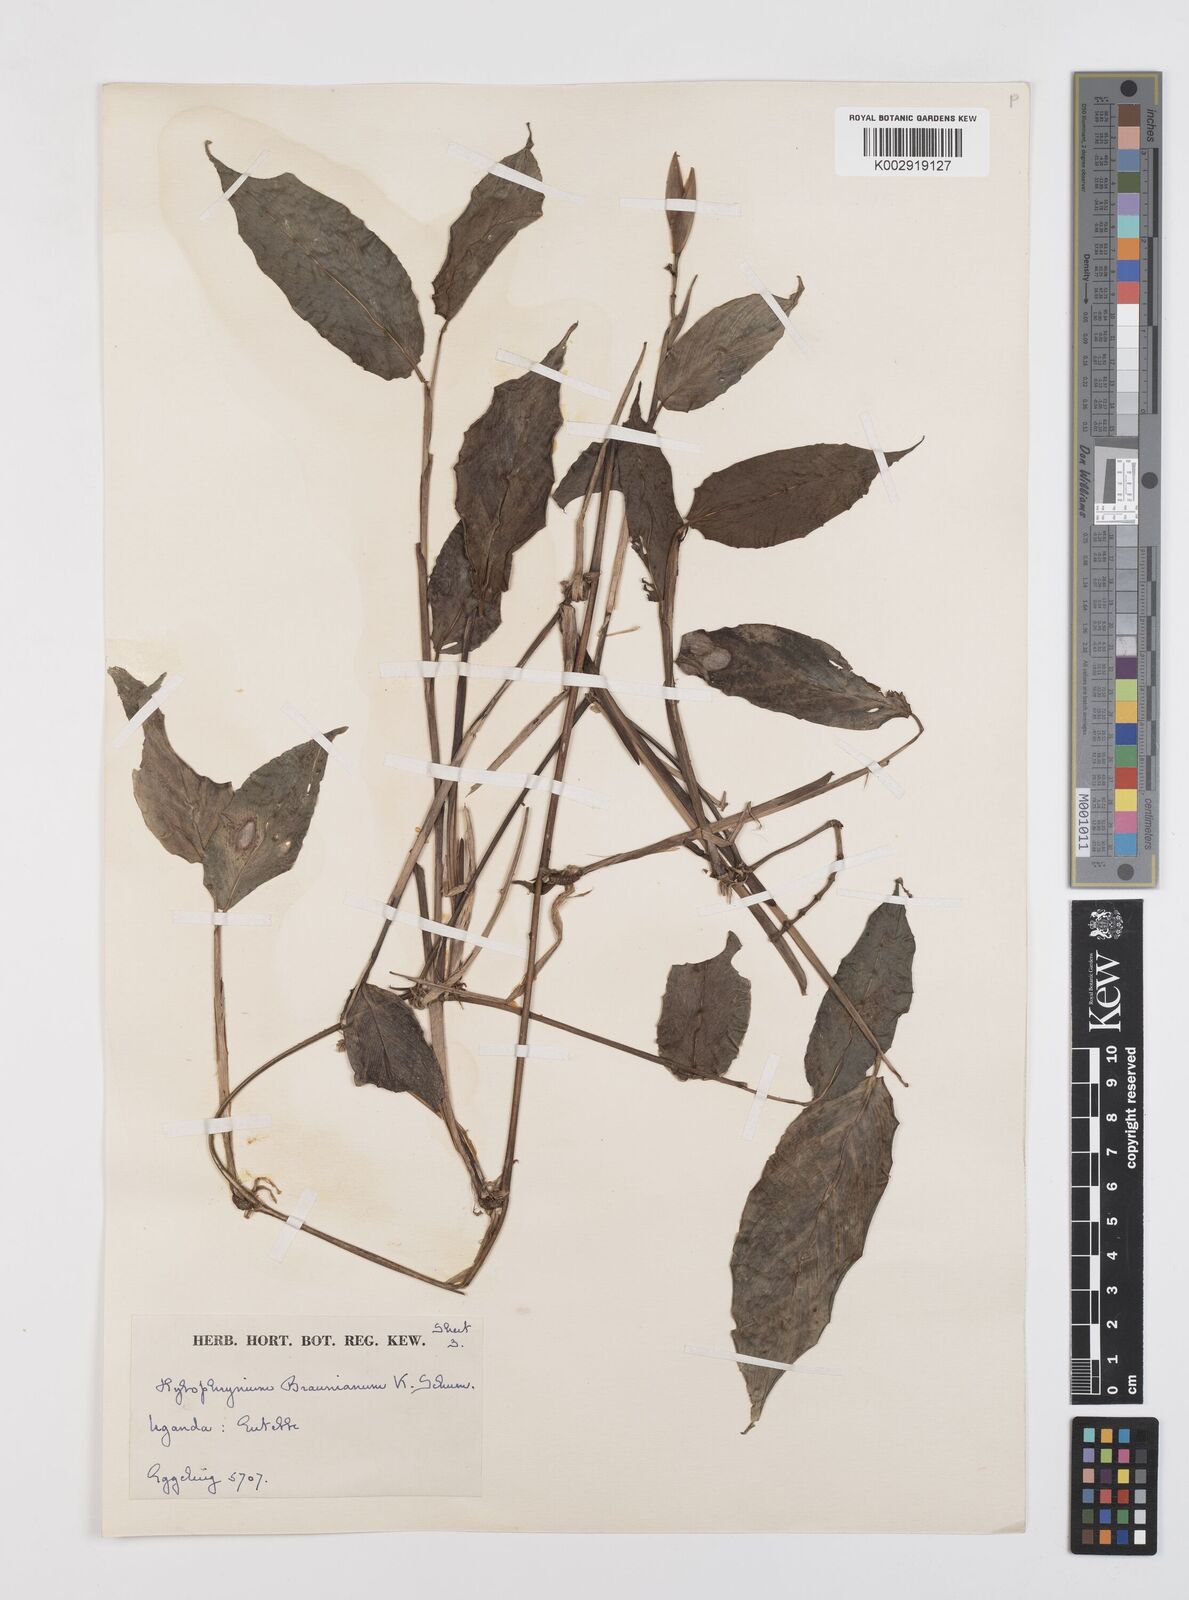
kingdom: Plantae
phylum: Tracheophyta
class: Liliopsida
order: Zingiberales
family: Marantaceae
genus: Trachyphrynium
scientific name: Trachyphrynium braunianum
